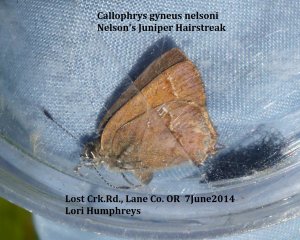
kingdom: Animalia
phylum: Arthropoda
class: Insecta
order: Lepidoptera
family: Lycaenidae
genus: Mitoura
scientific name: Mitoura nelsoni
